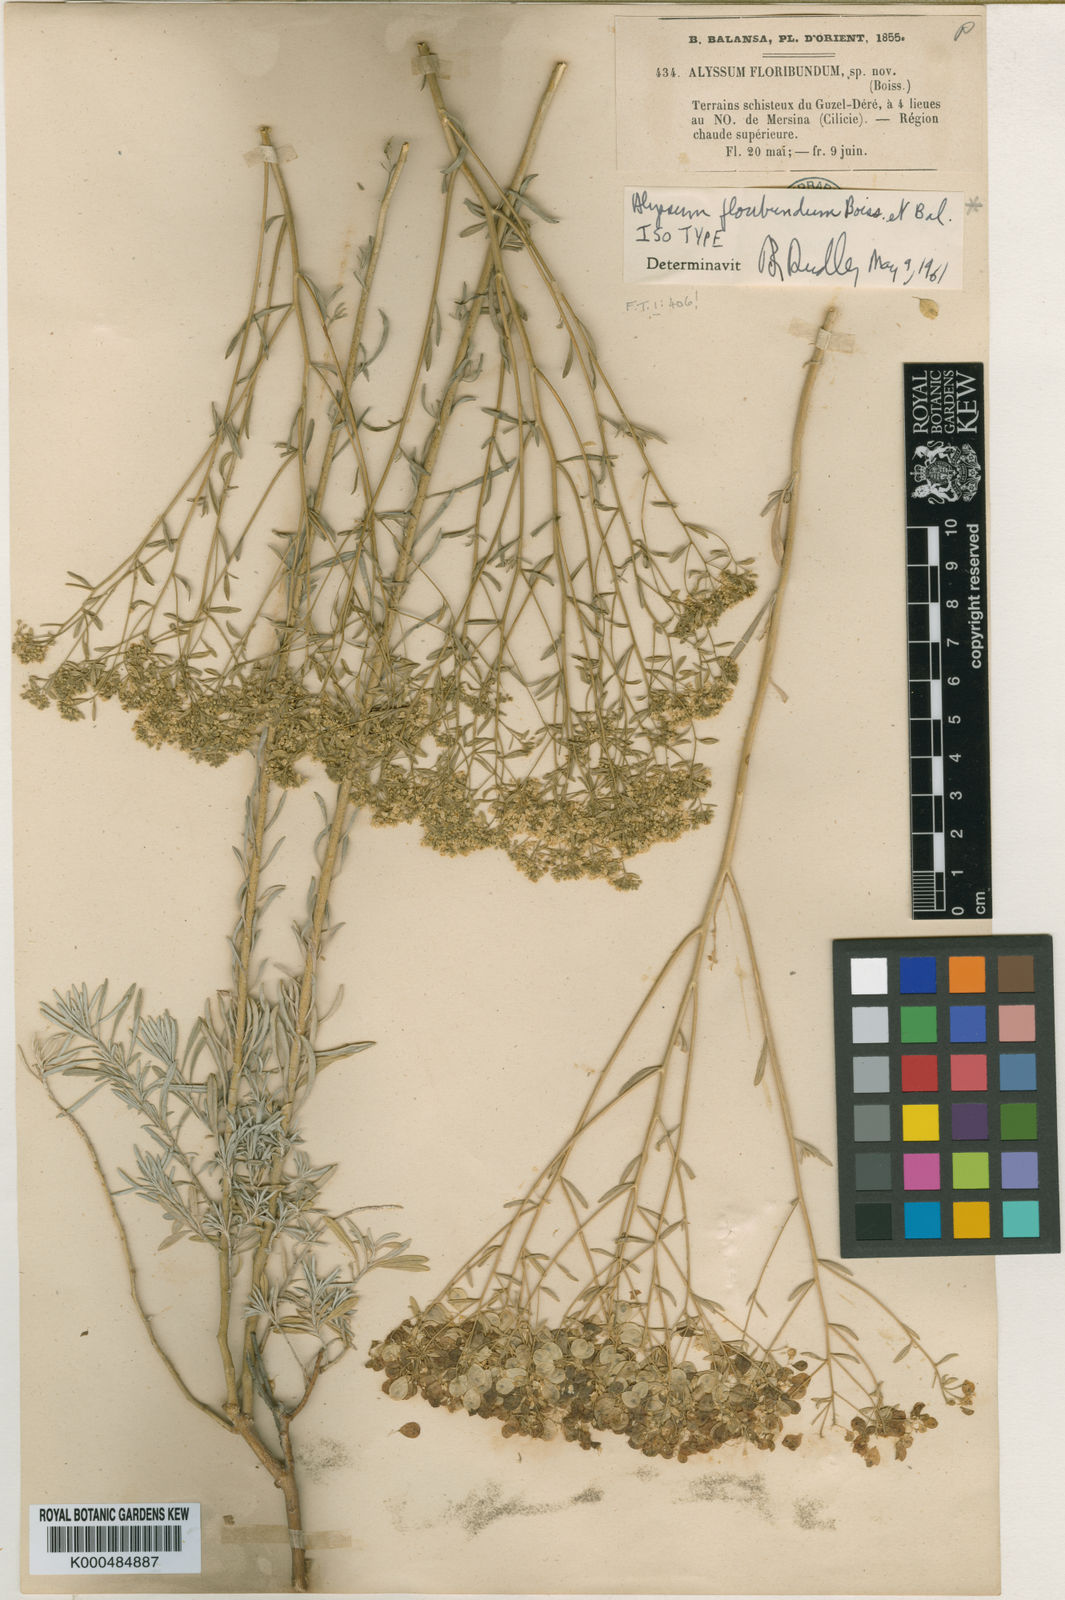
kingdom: Plantae
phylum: Tracheophyta
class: Magnoliopsida
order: Brassicales
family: Brassicaceae
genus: Odontarrhena
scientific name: Odontarrhena
